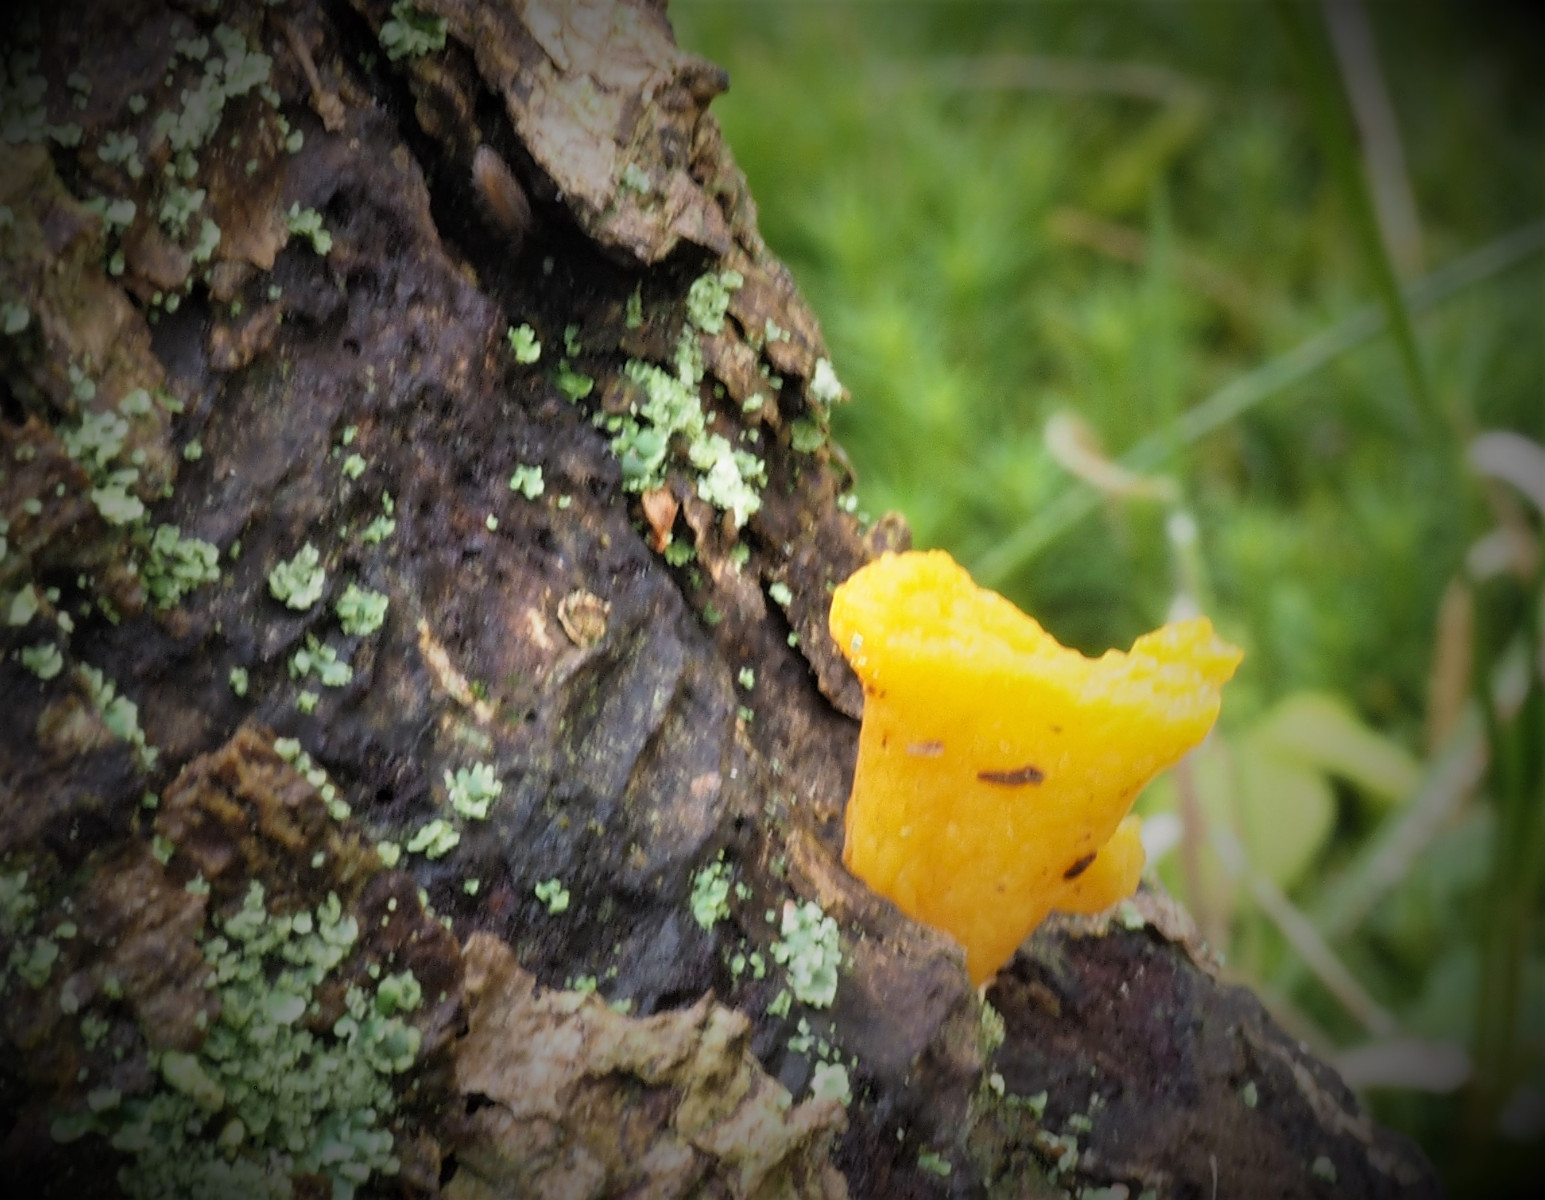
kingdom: Fungi
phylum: Basidiomycota
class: Dacrymycetes
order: Dacrymycetales
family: Dacrymycetaceae
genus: Calocera
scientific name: Calocera furcata
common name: fyrre-guldgaffel
